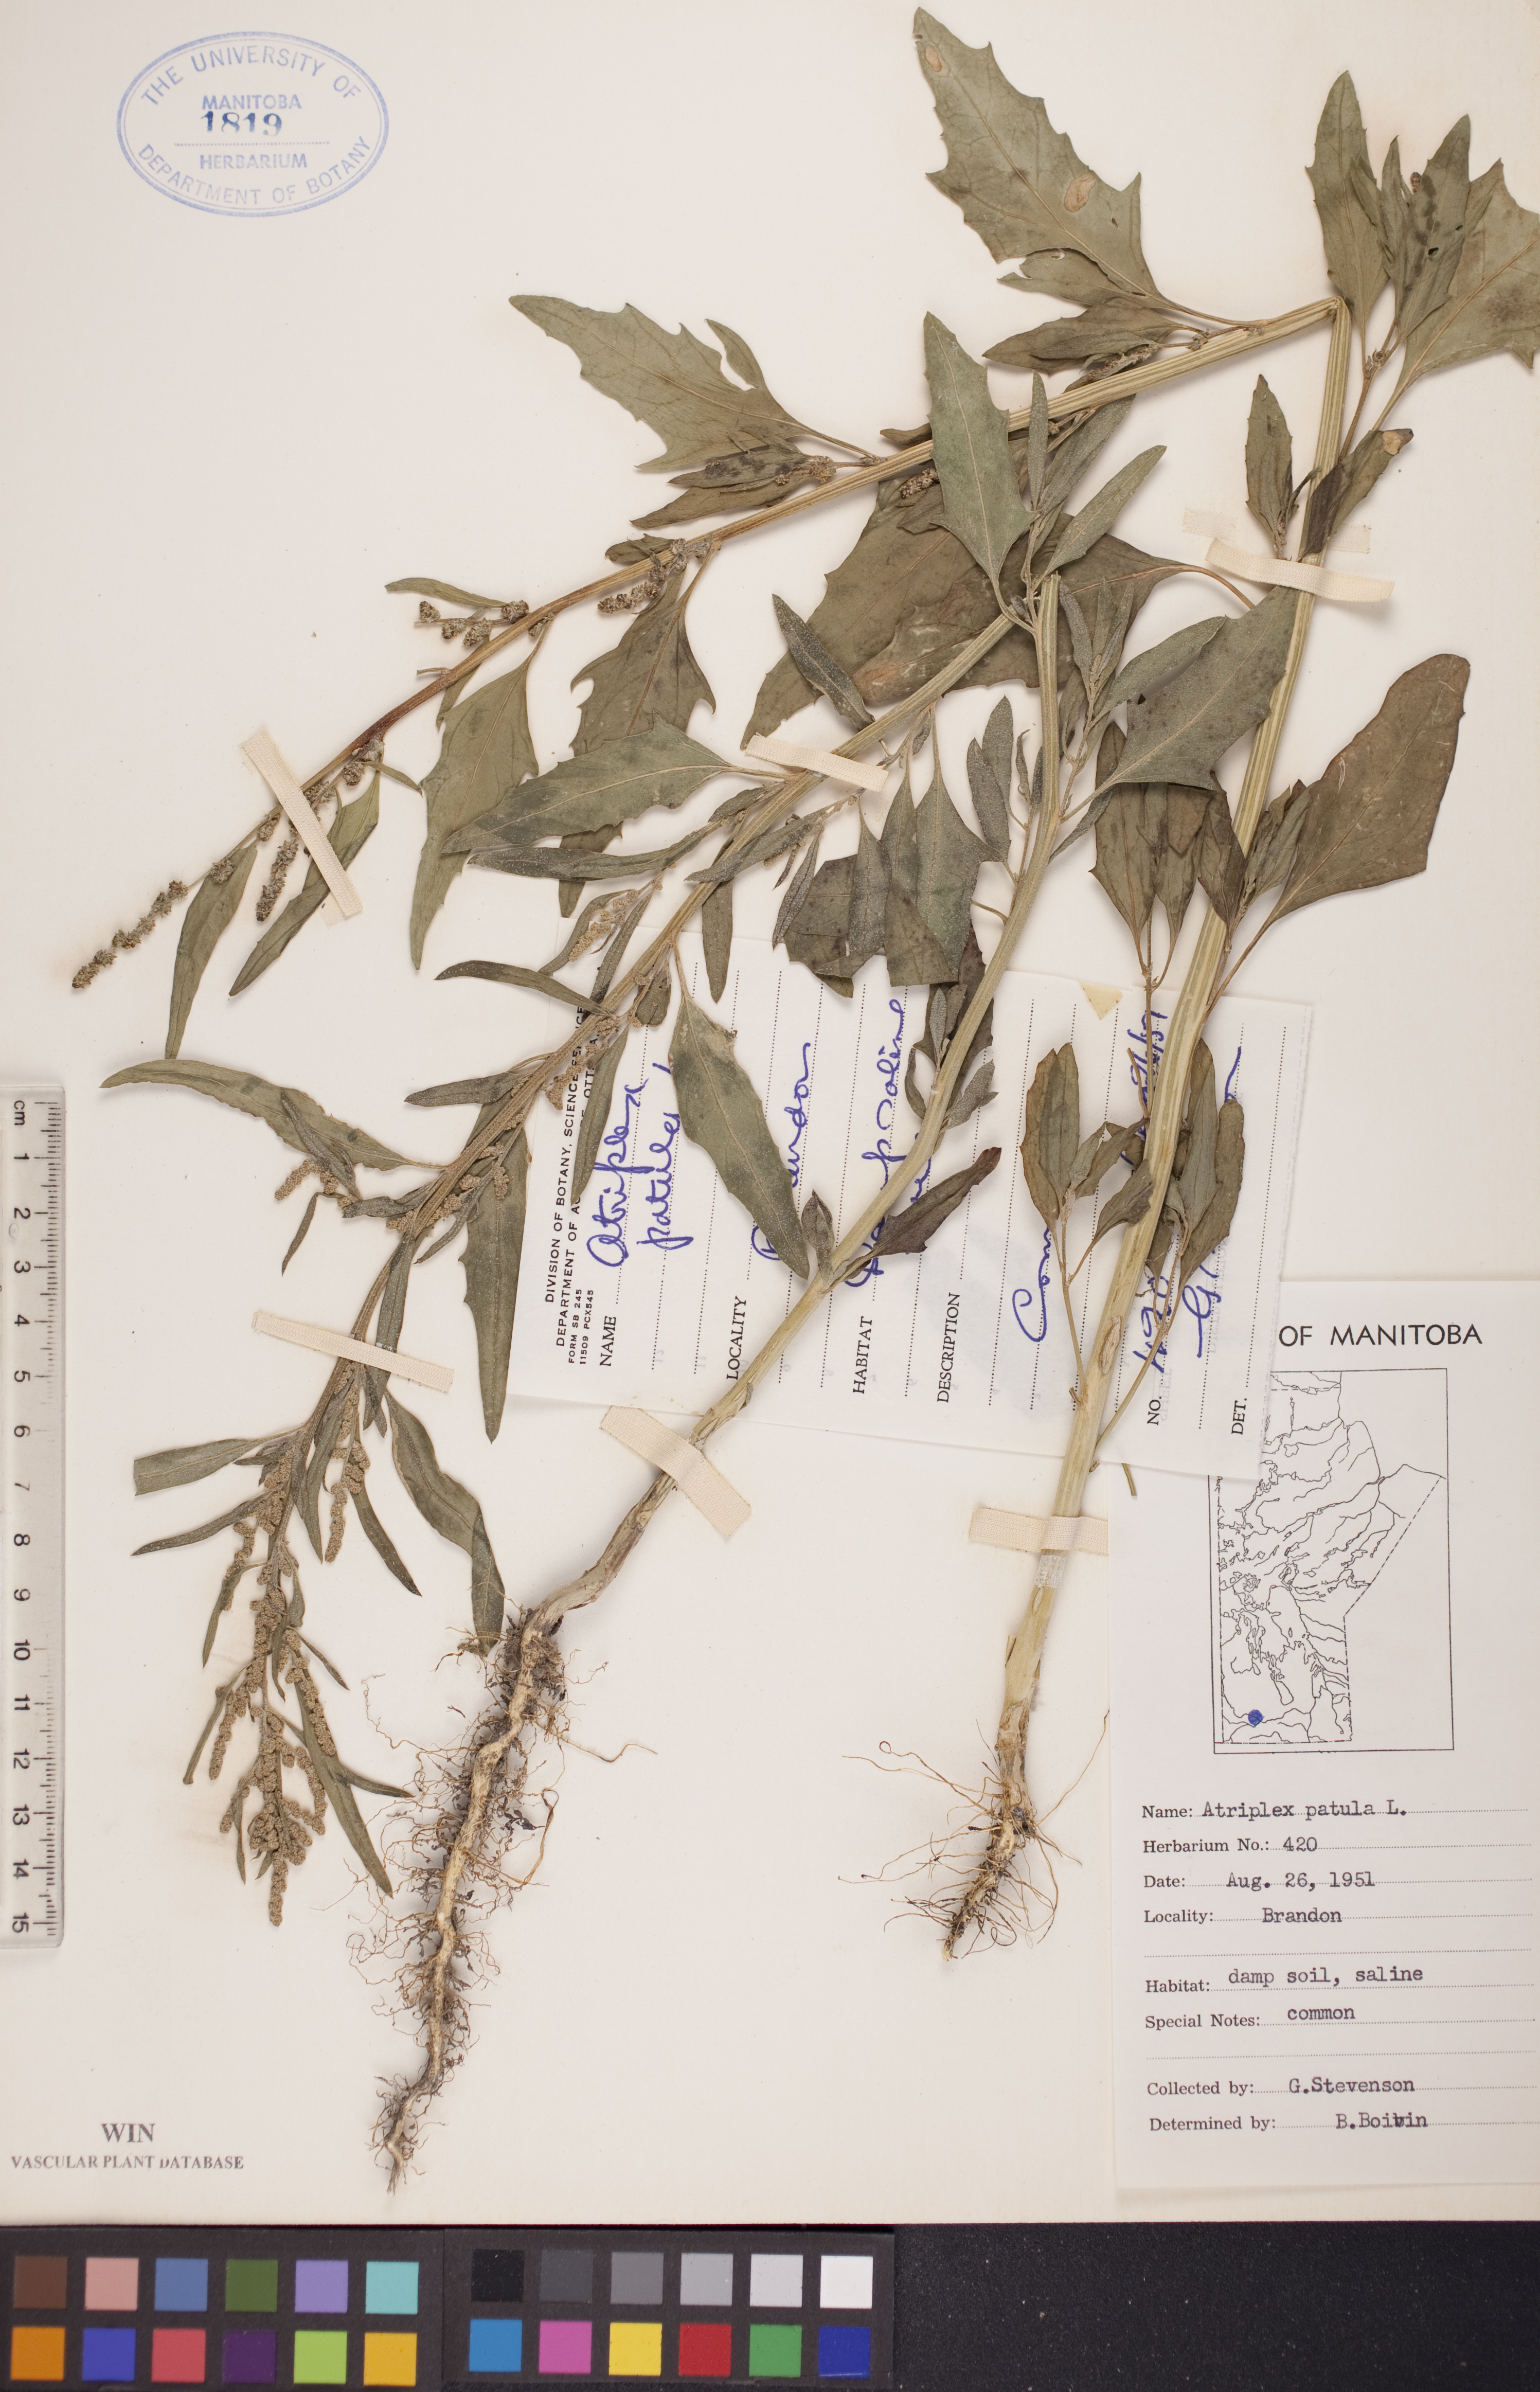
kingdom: Plantae
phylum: Tracheophyta
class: Magnoliopsida
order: Caryophyllales
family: Amaranthaceae
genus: Atriplex
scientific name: Atriplex patula
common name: Common orache
